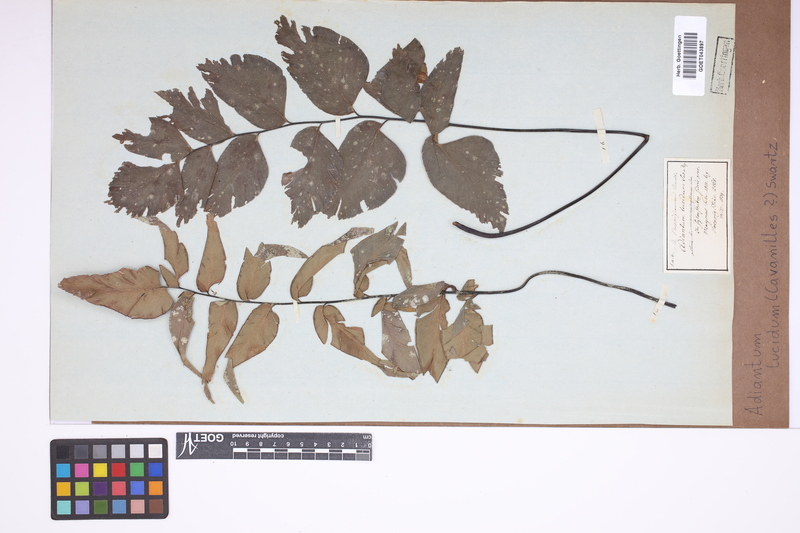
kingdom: Plantae
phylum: Tracheophyta
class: Polypodiopsida
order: Polypodiales
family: Pteridaceae
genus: Adiantum
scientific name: Adiantum lucidum
